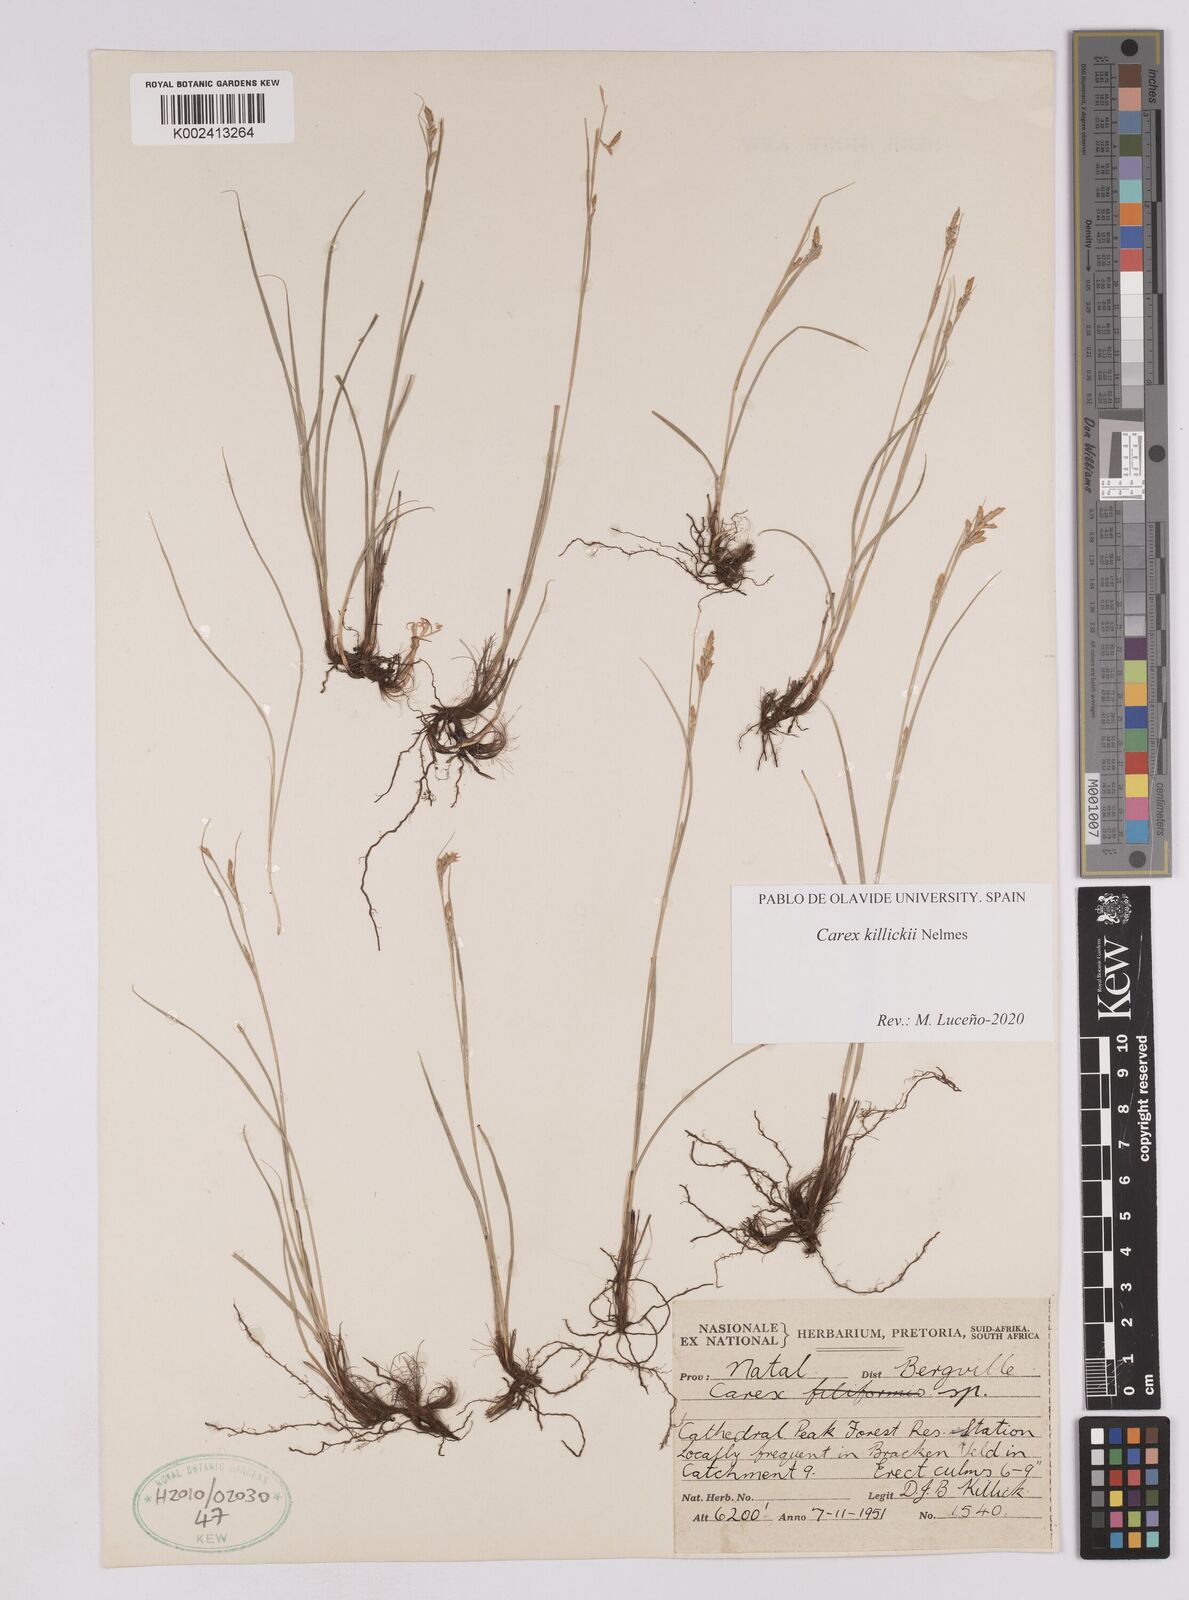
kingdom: Plantae
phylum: Tracheophyta
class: Liliopsida
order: Poales
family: Cyperaceae
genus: Carex
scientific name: Carex
